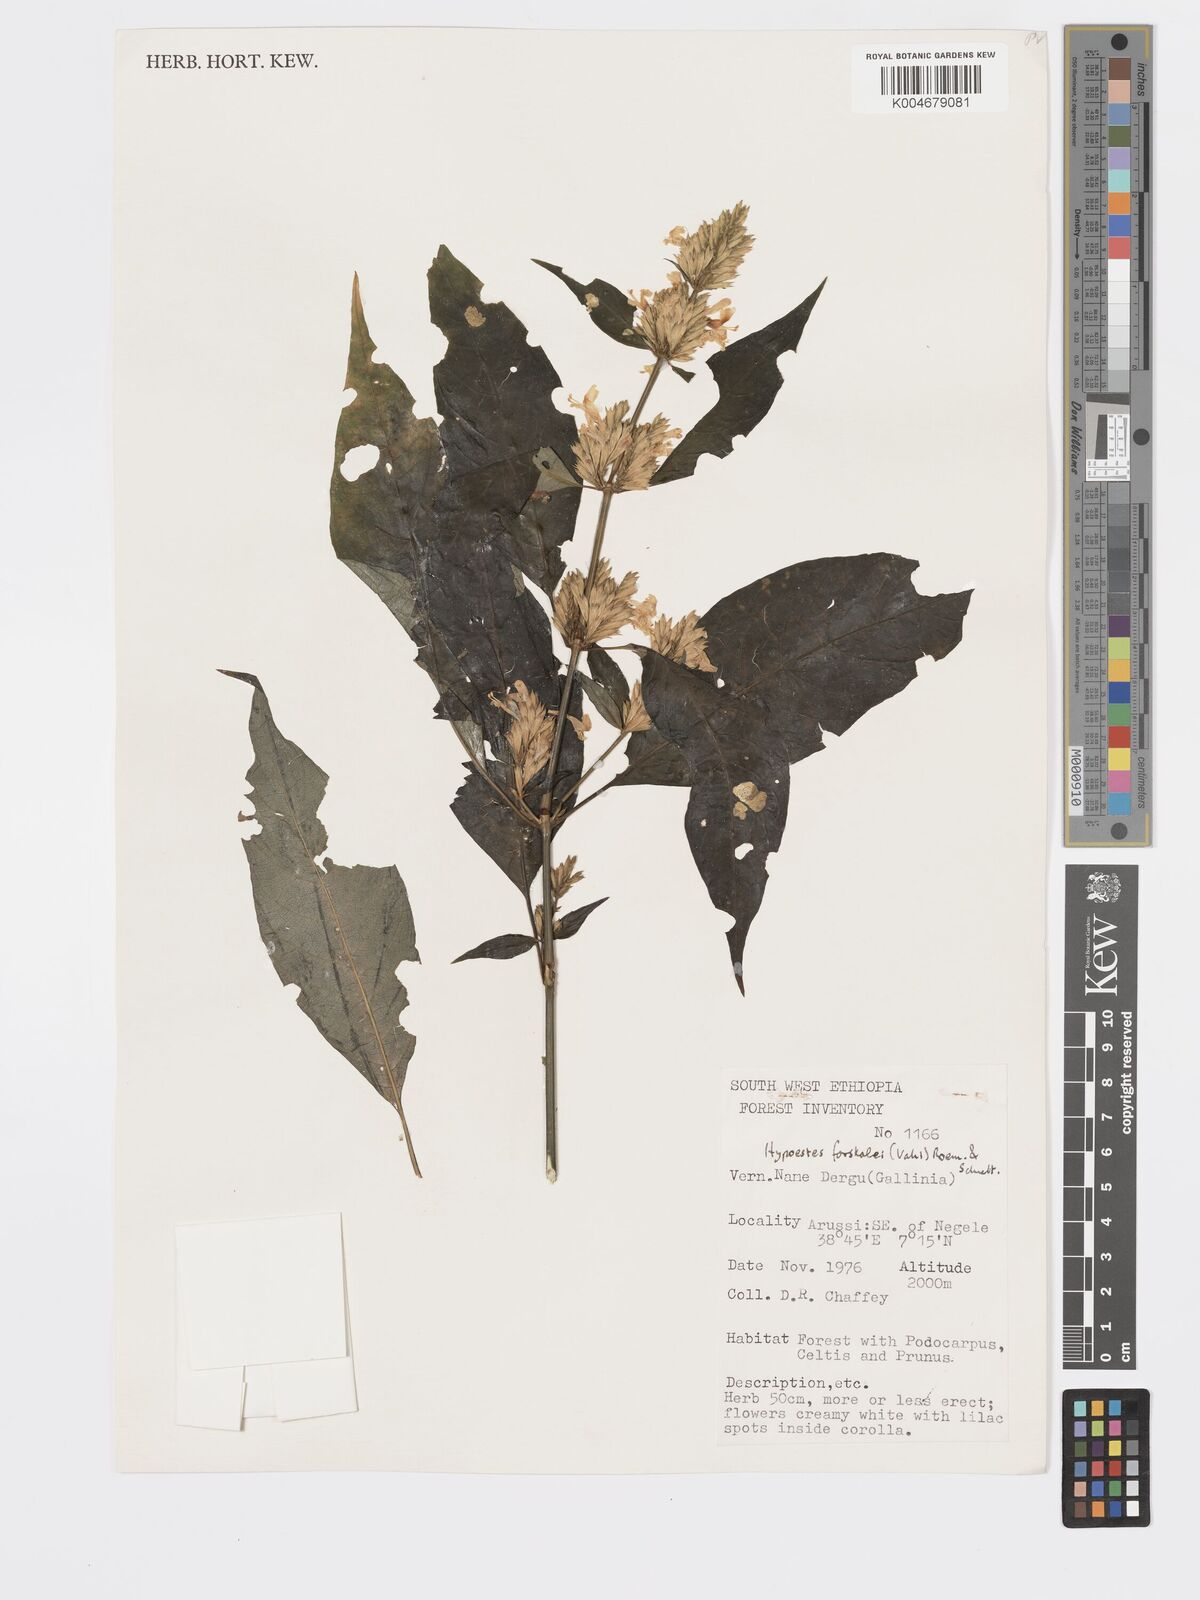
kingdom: Plantae
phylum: Tracheophyta
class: Magnoliopsida
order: Lamiales
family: Acanthaceae
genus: Hypoestes
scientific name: Hypoestes forskaolii
